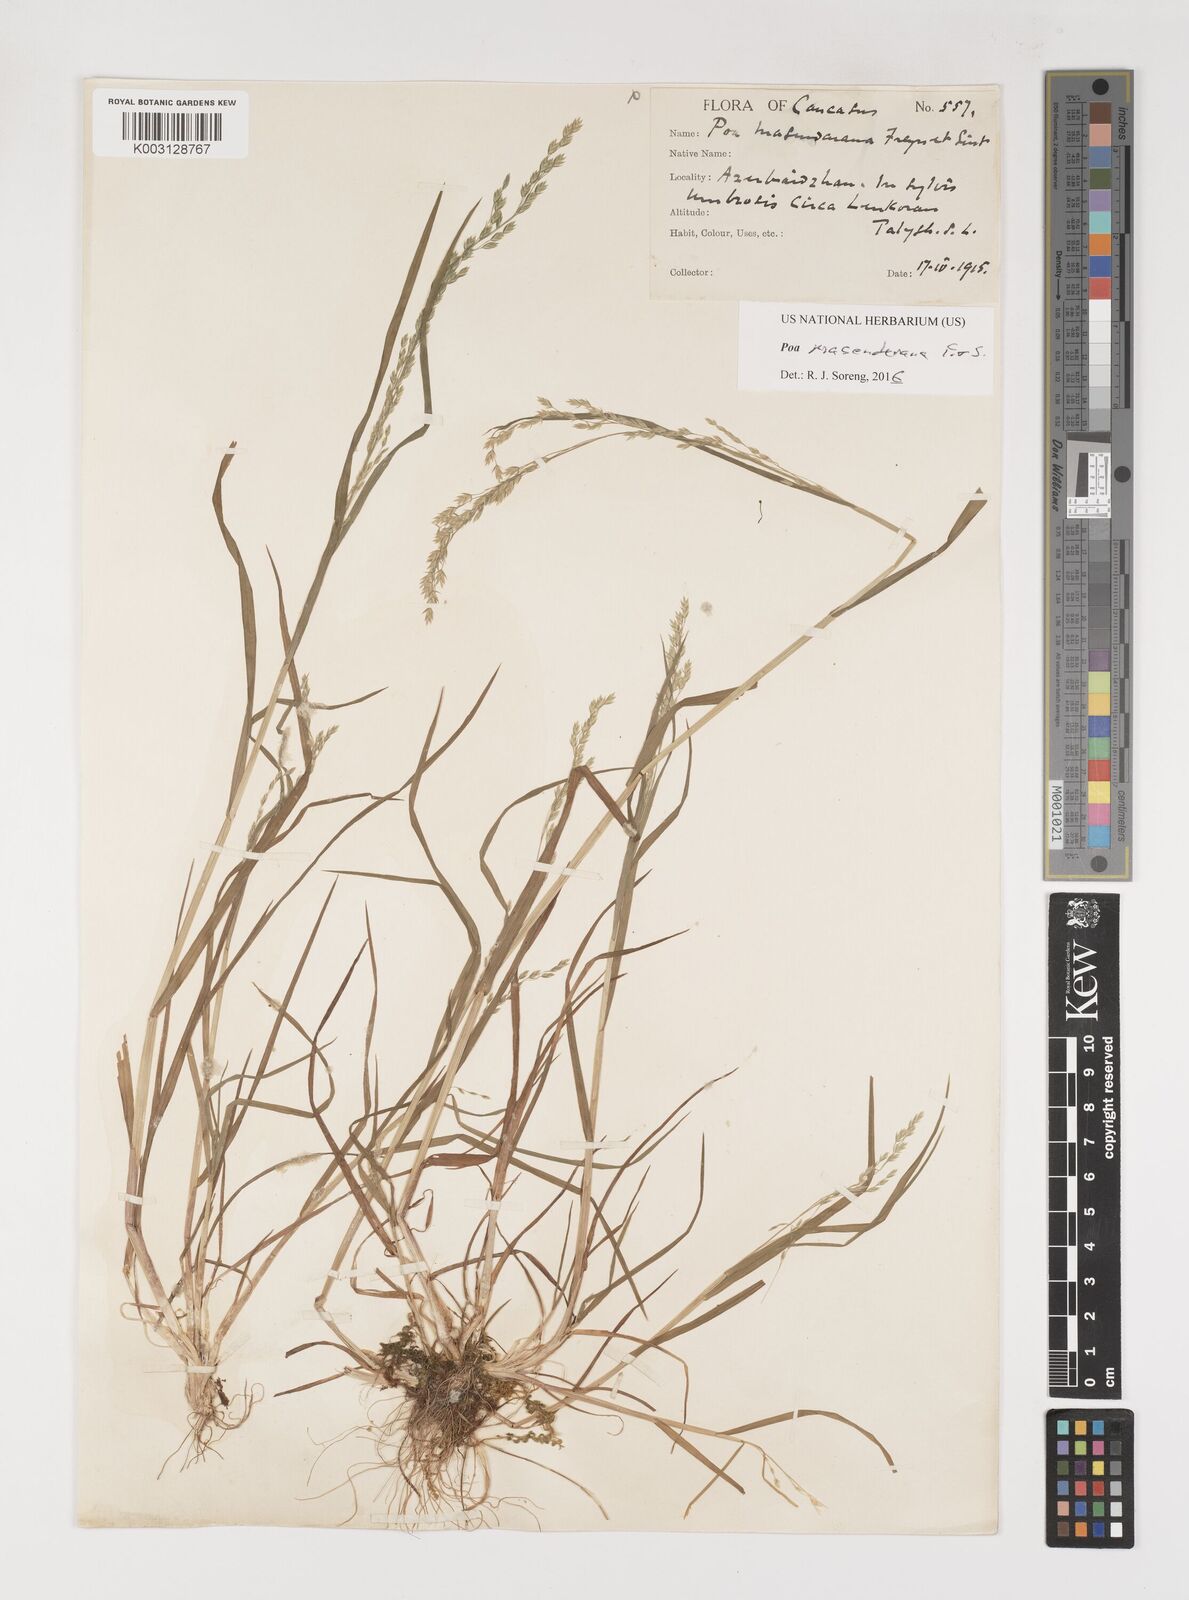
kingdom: Plantae
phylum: Tracheophyta
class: Liliopsida
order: Poales
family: Poaceae
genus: Poa
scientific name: Poa masenderana
